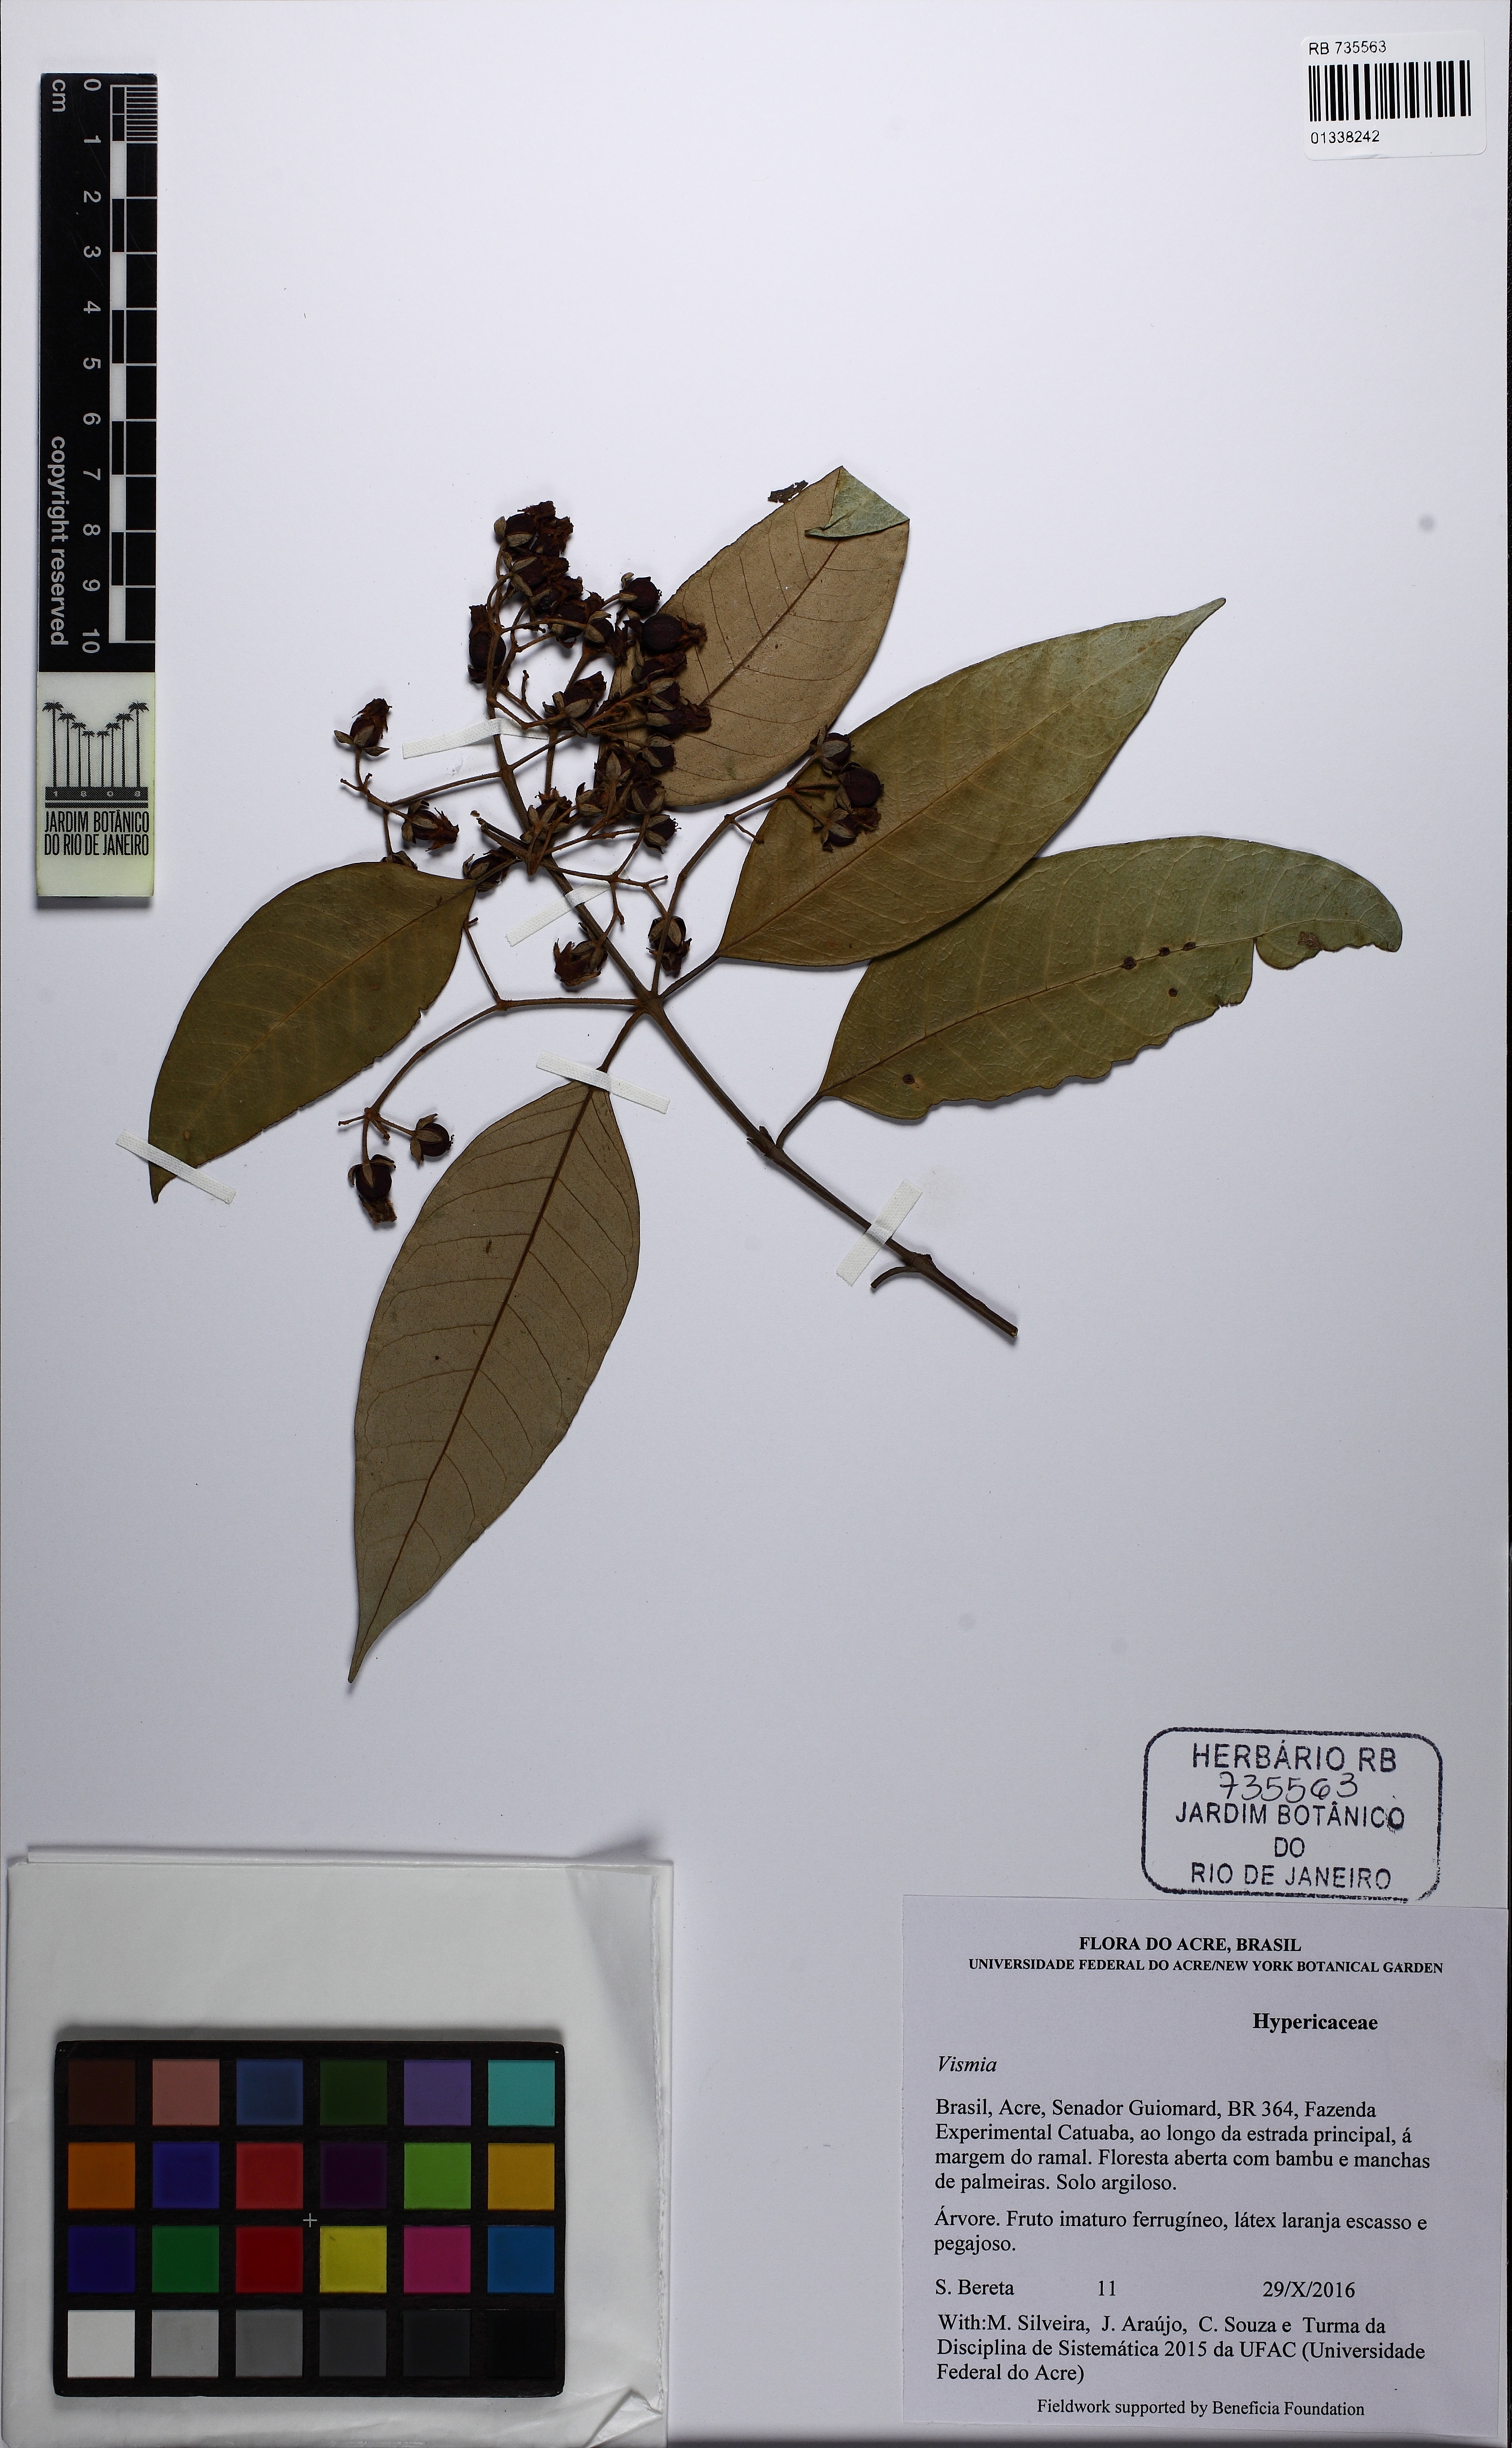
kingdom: Plantae
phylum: Tracheophyta
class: Magnoliopsida
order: Malpighiales
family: Hypericaceae
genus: Vismia
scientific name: Vismia gracilis
